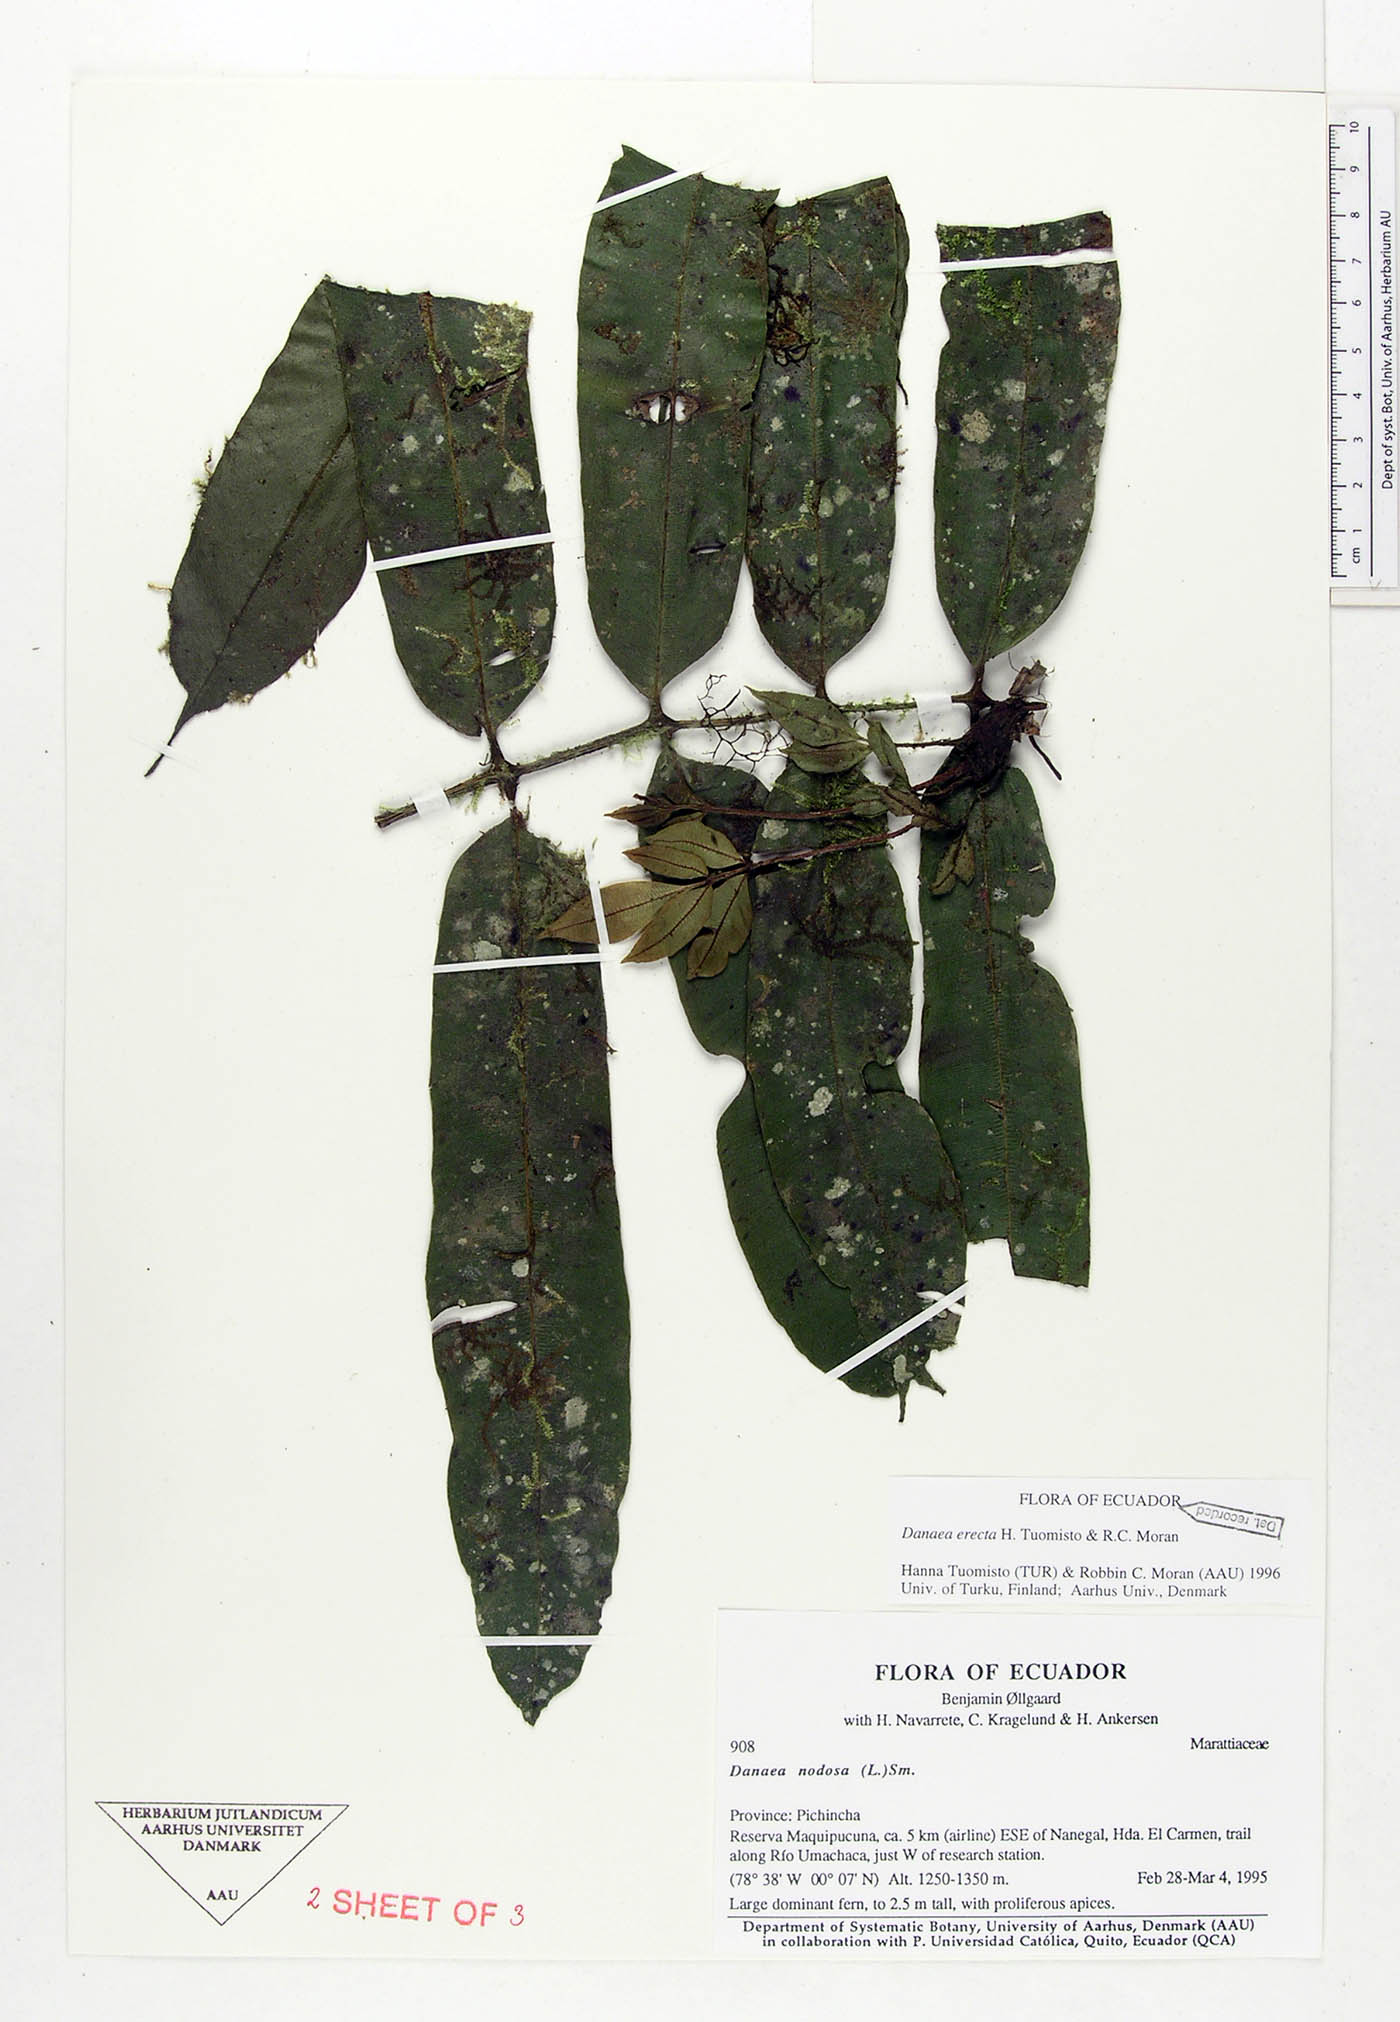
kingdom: Plantae
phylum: Tracheophyta
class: Polypodiopsida
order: Marattiales
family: Marattiaceae
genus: Danaea
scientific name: Danaea nodosa
